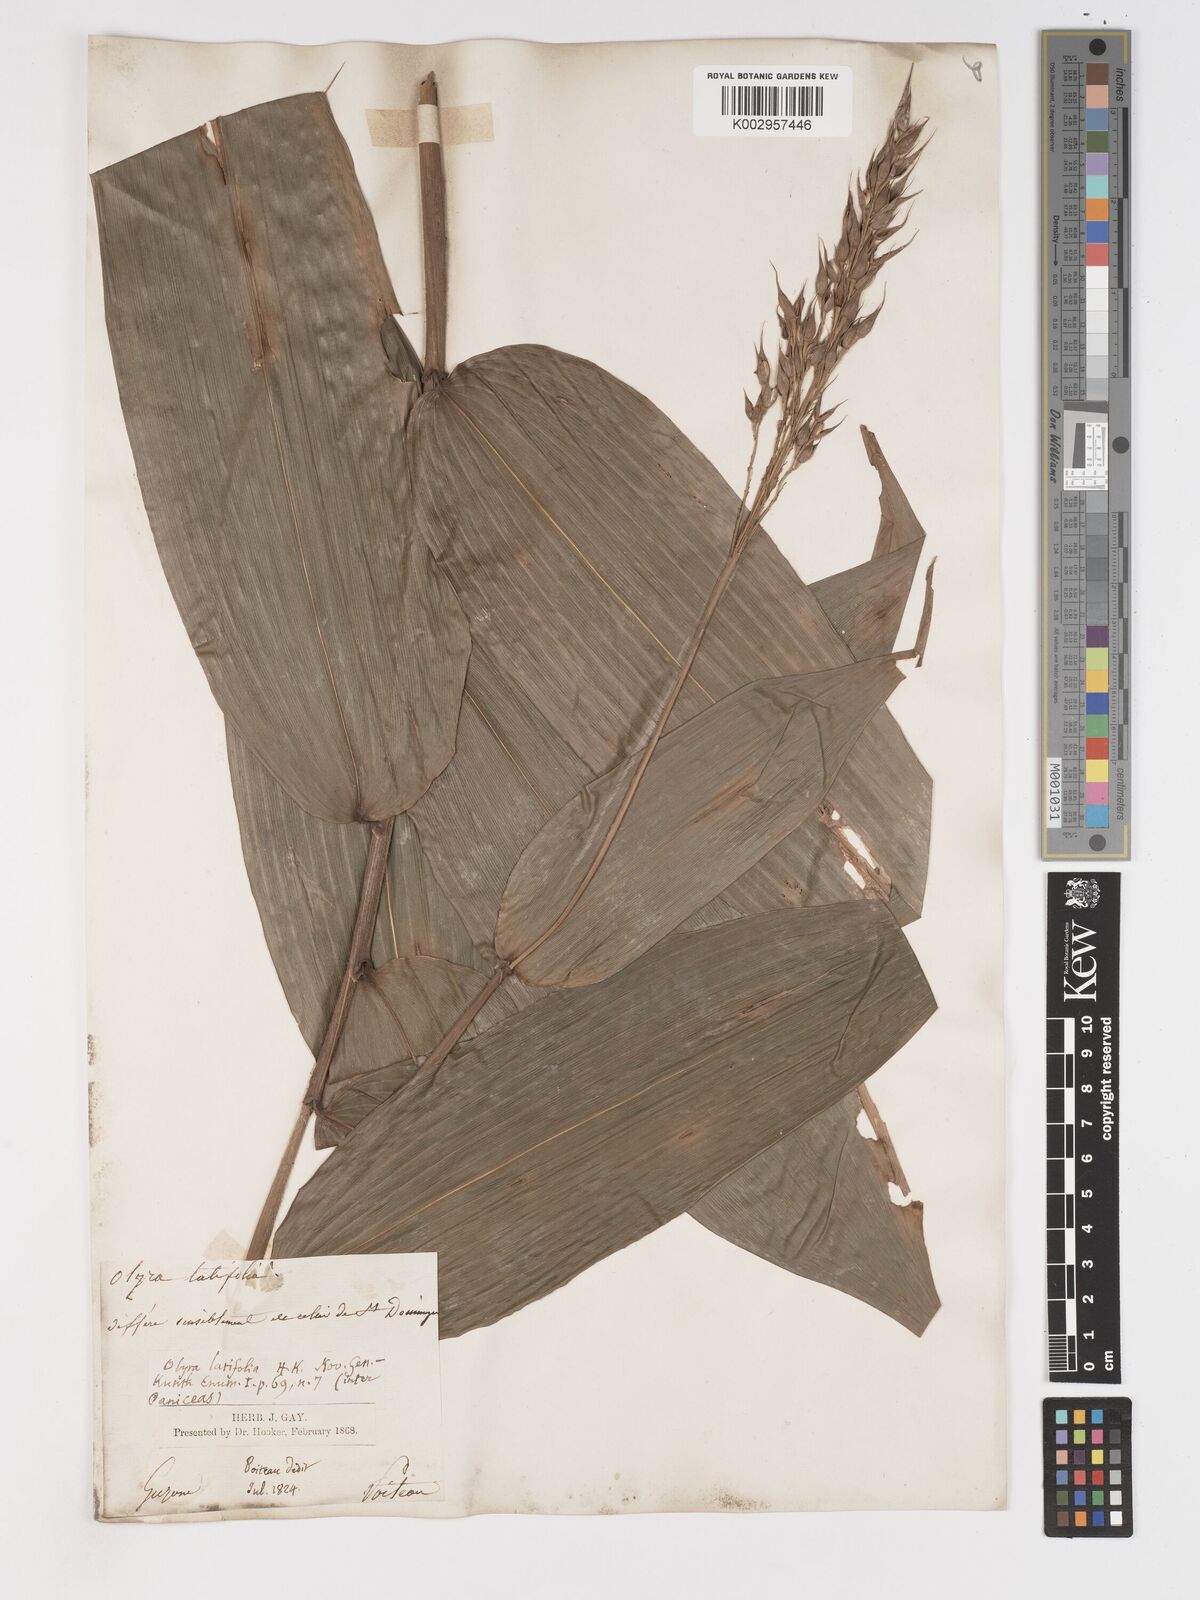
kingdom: Plantae
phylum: Tracheophyta
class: Liliopsida
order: Poales
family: Poaceae
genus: Olyra
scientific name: Olyra latifolia
